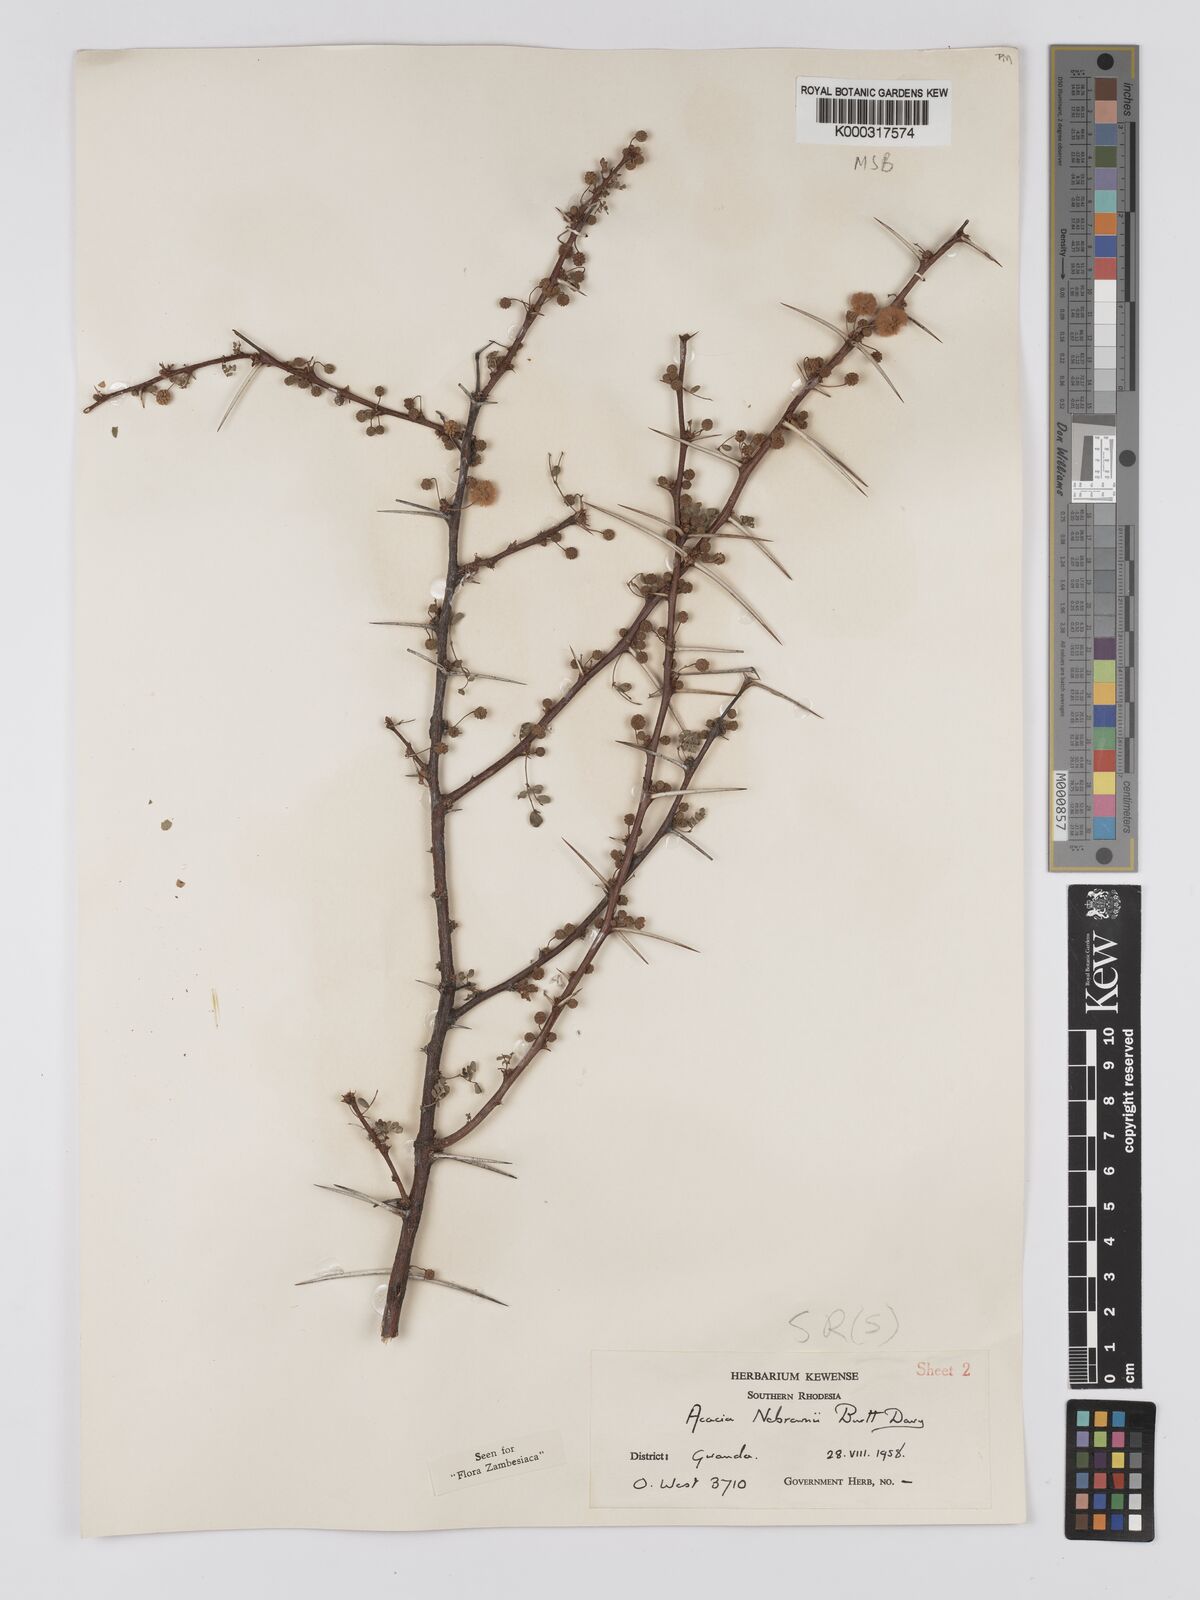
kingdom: Plantae
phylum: Tracheophyta
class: Magnoliopsida
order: Fabales
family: Fabaceae
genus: Vachellia
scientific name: Vachellia nebrownii
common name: Water acacia
